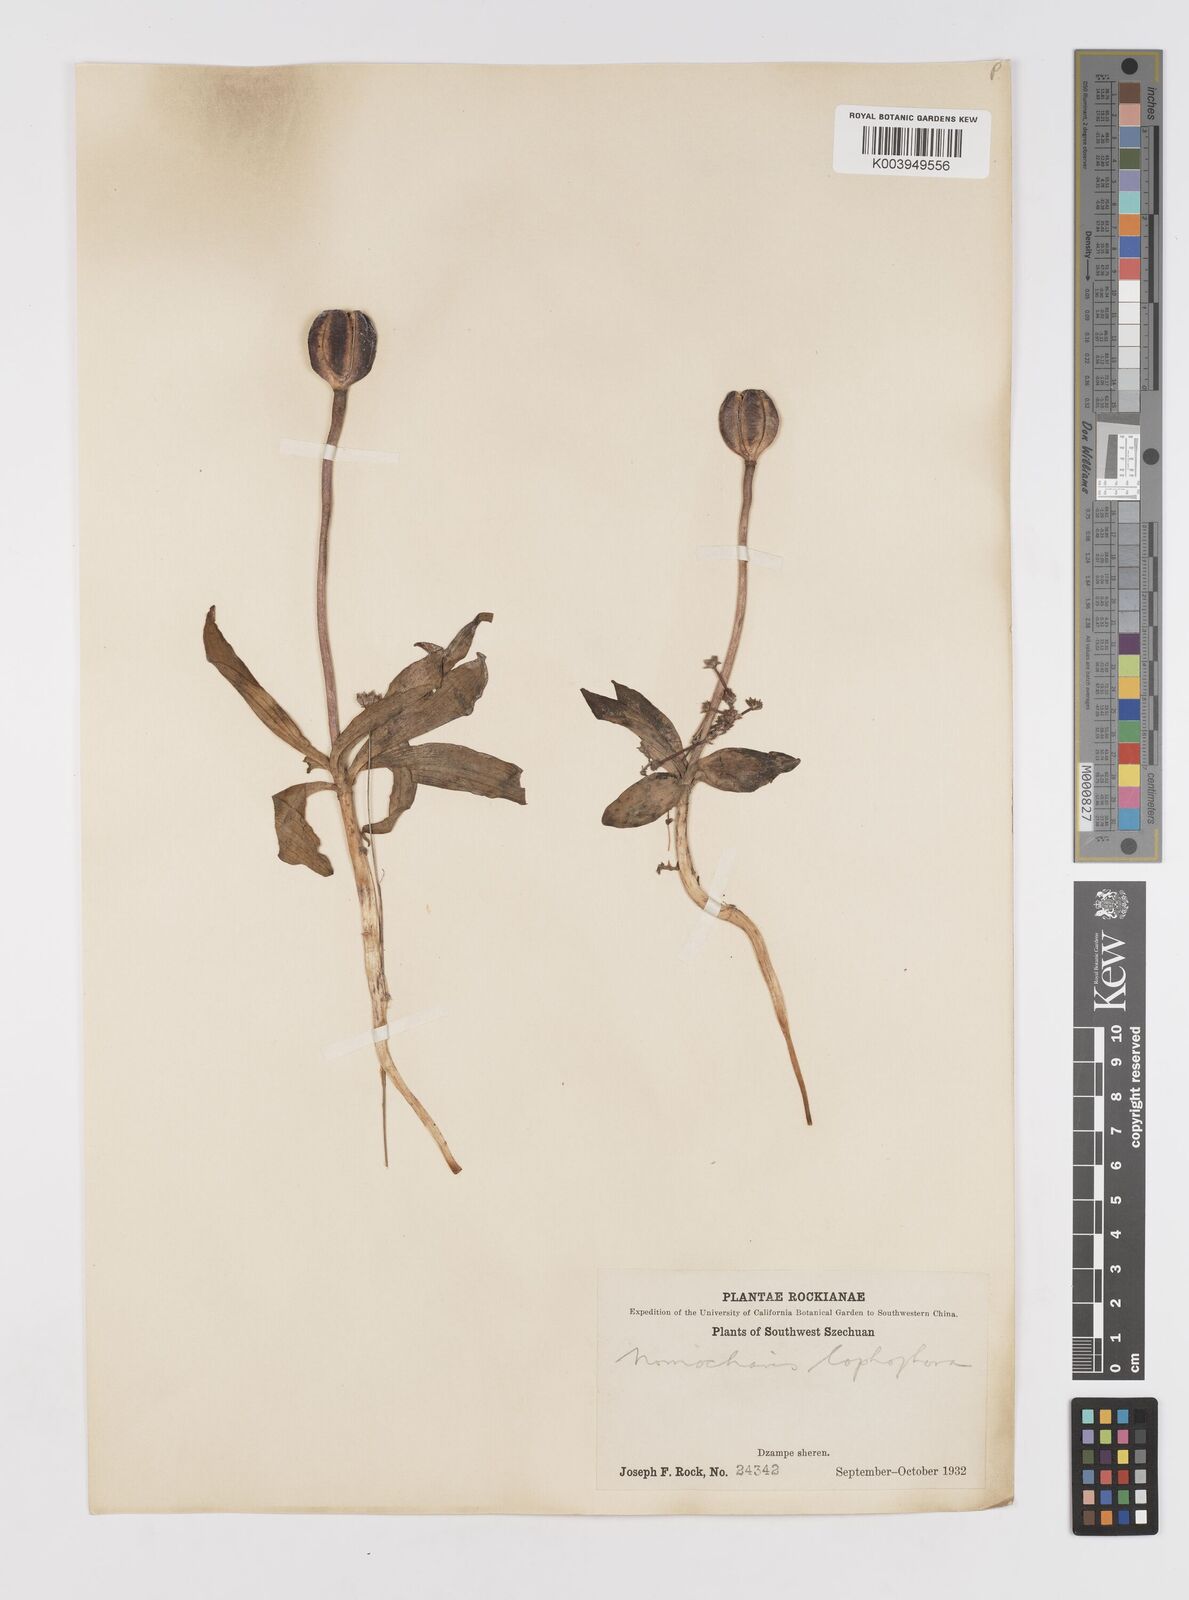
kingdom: Plantae
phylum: Tracheophyta
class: Liliopsida
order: Liliales
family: Liliaceae
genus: Lilium
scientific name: Lilium lophophorum
